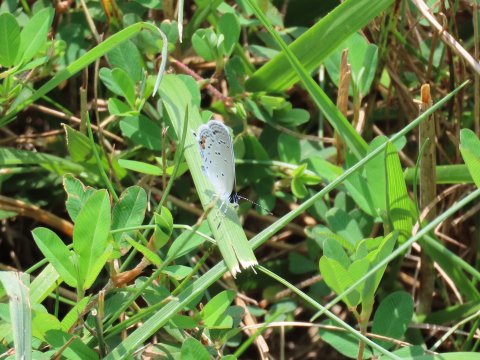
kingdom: Animalia
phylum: Arthropoda
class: Insecta
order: Lepidoptera
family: Lycaenidae
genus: Elkalyce
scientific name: Elkalyce comyntas
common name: Eastern Tailed-Blue
